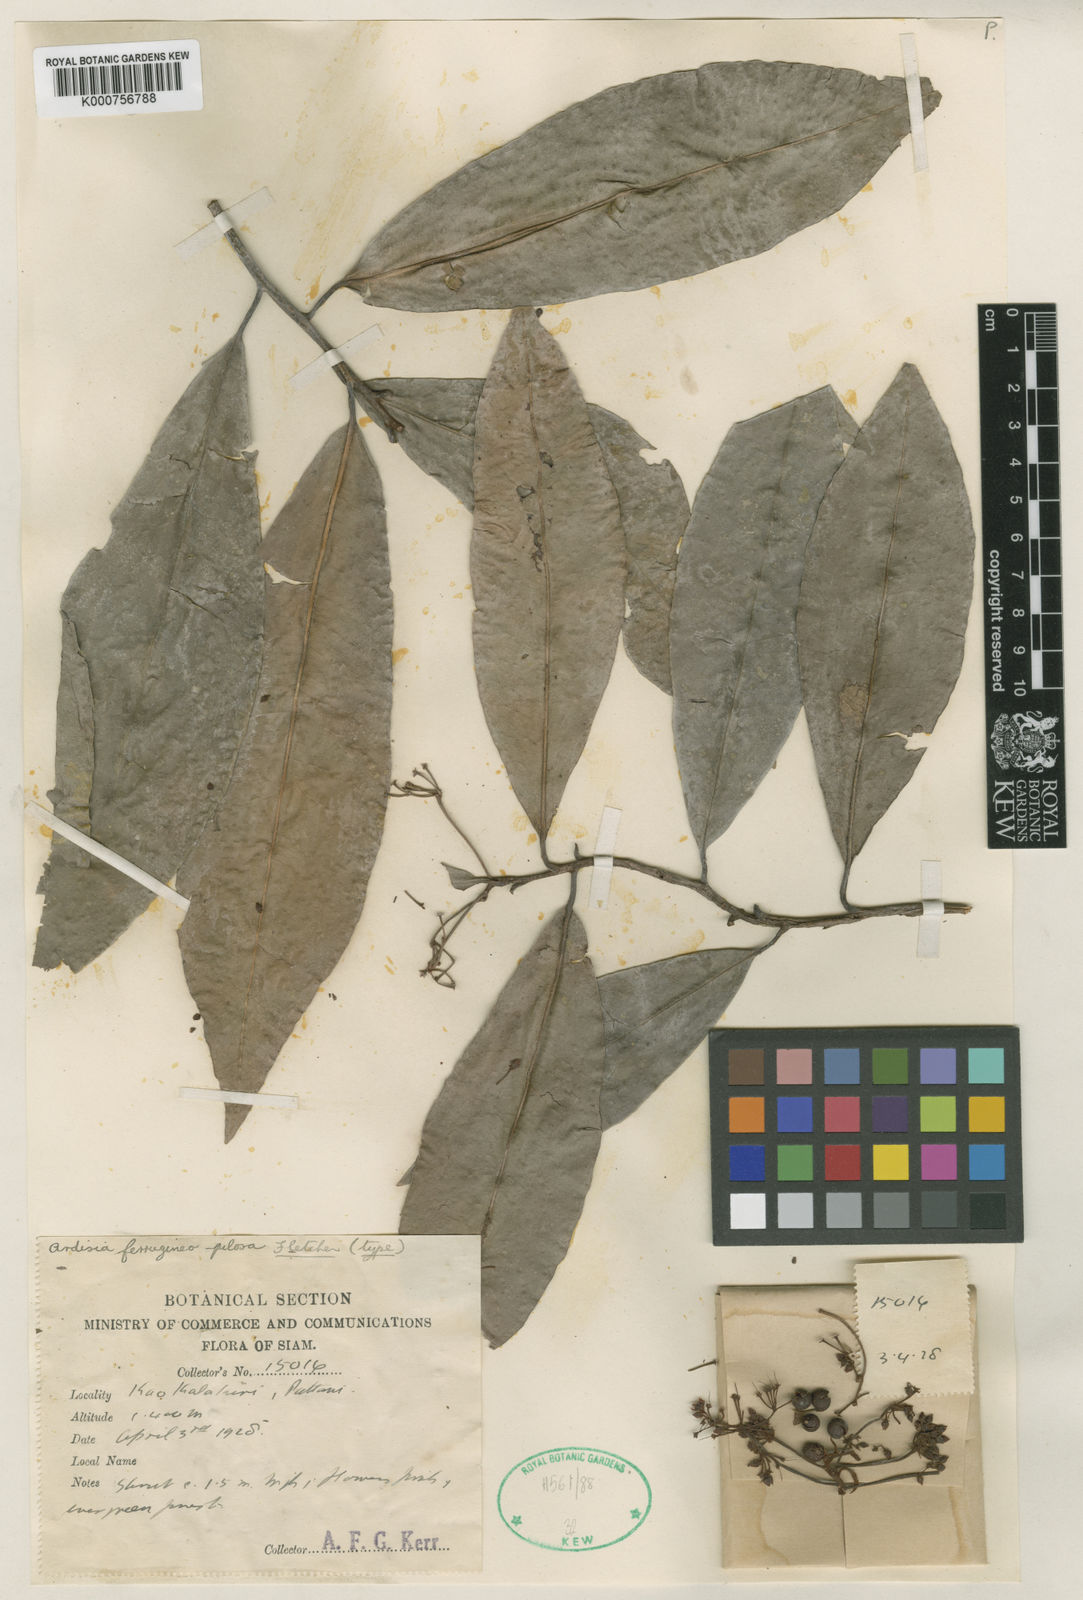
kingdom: Plantae
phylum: Tracheophyta
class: Magnoliopsida
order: Ericales
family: Primulaceae
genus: Ardisia
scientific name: Ardisia ferrugineopilosa
